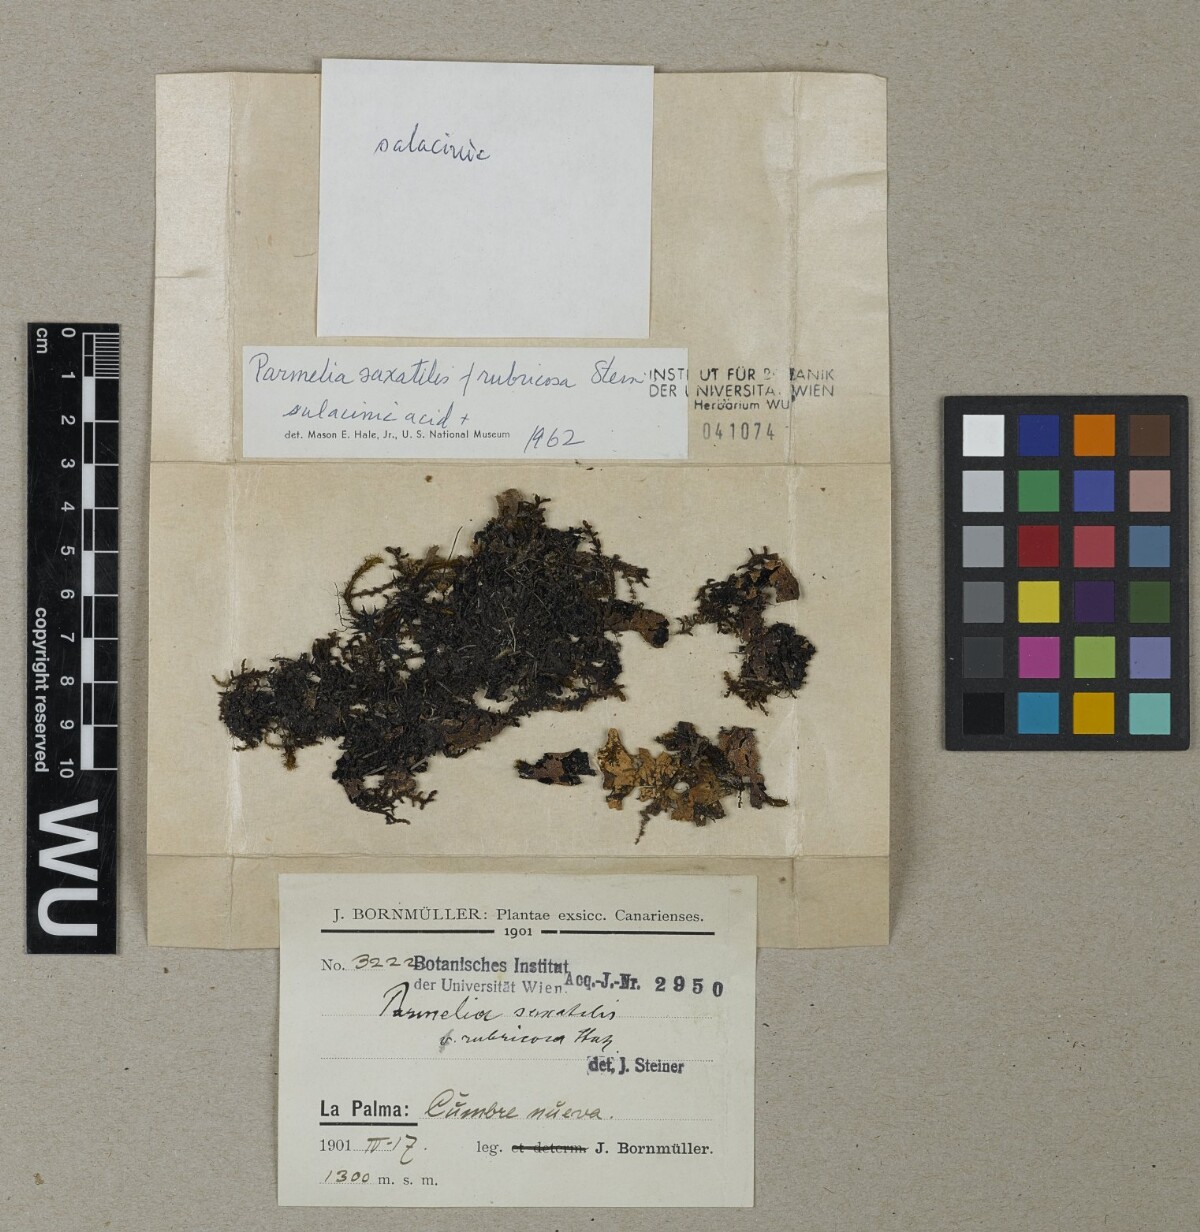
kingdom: Fungi
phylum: Ascomycota
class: Lecanoromycetes
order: Lecanorales
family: Parmeliaceae
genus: Parmelia
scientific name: Parmelia saxatilis
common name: Salted shield lichen
